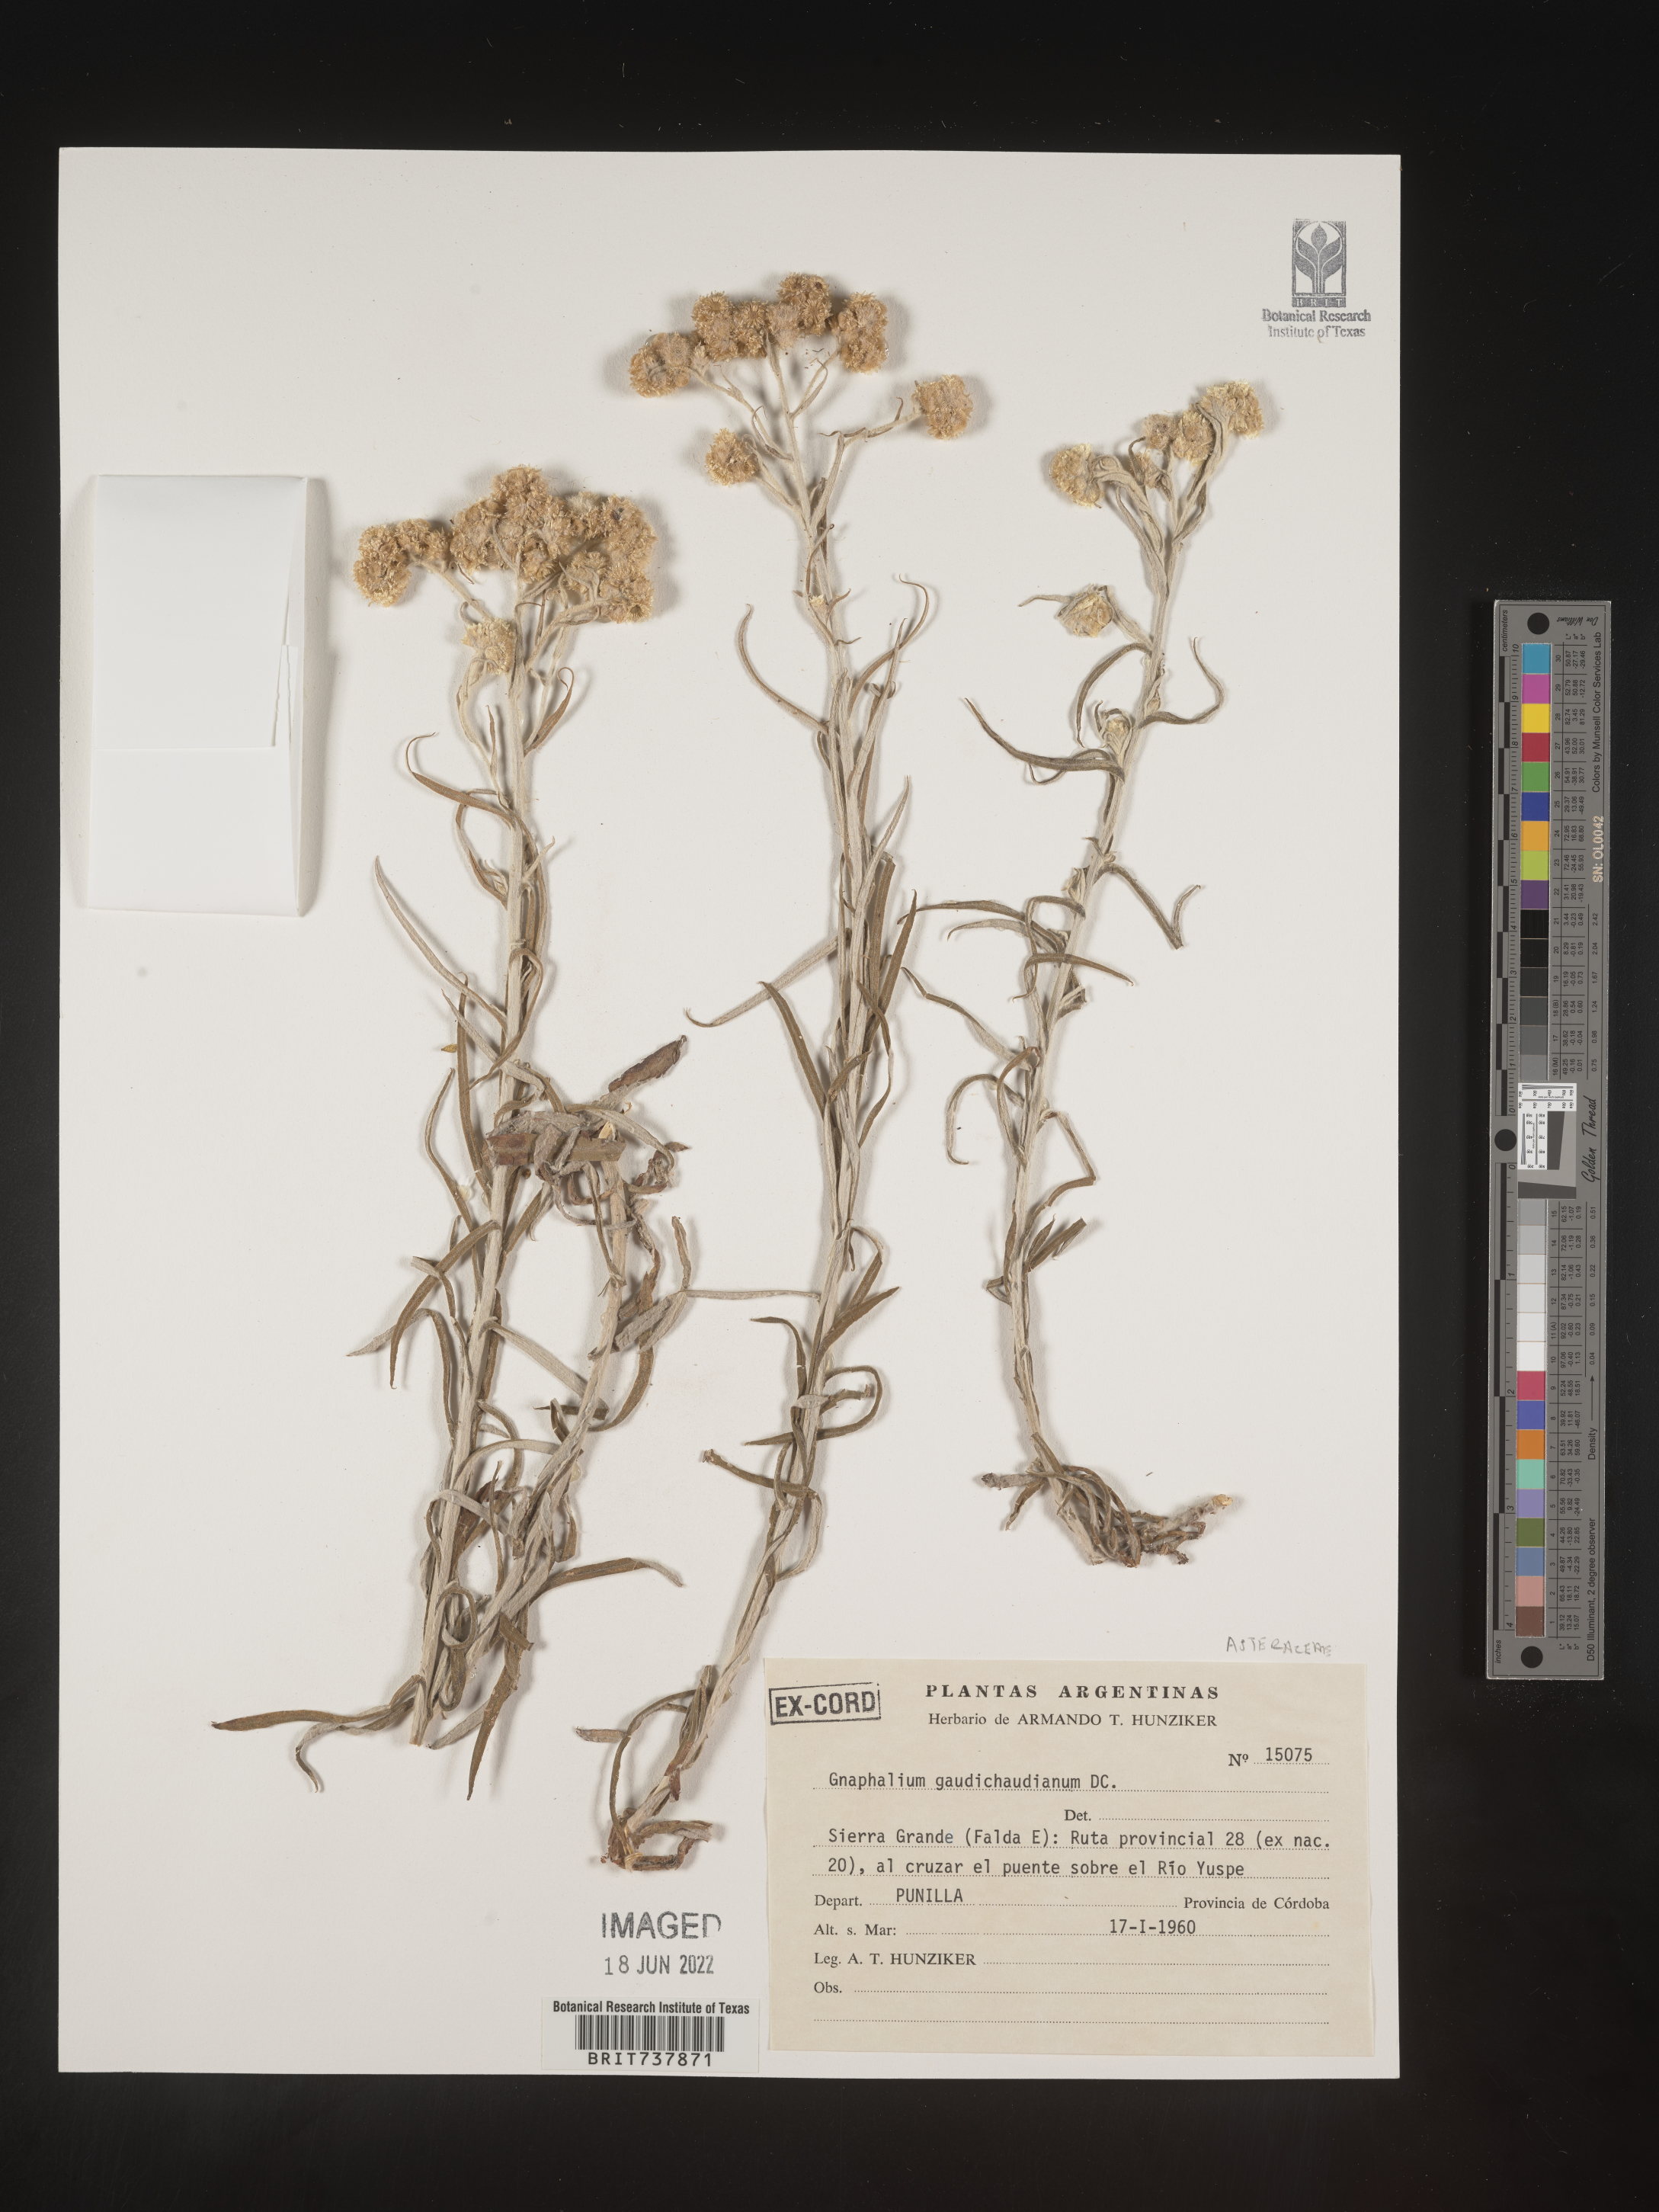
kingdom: Plantae
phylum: Tracheophyta
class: Magnoliopsida
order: Asterales
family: Asteraceae
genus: Pseudognaphalium
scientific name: Pseudognaphalium
